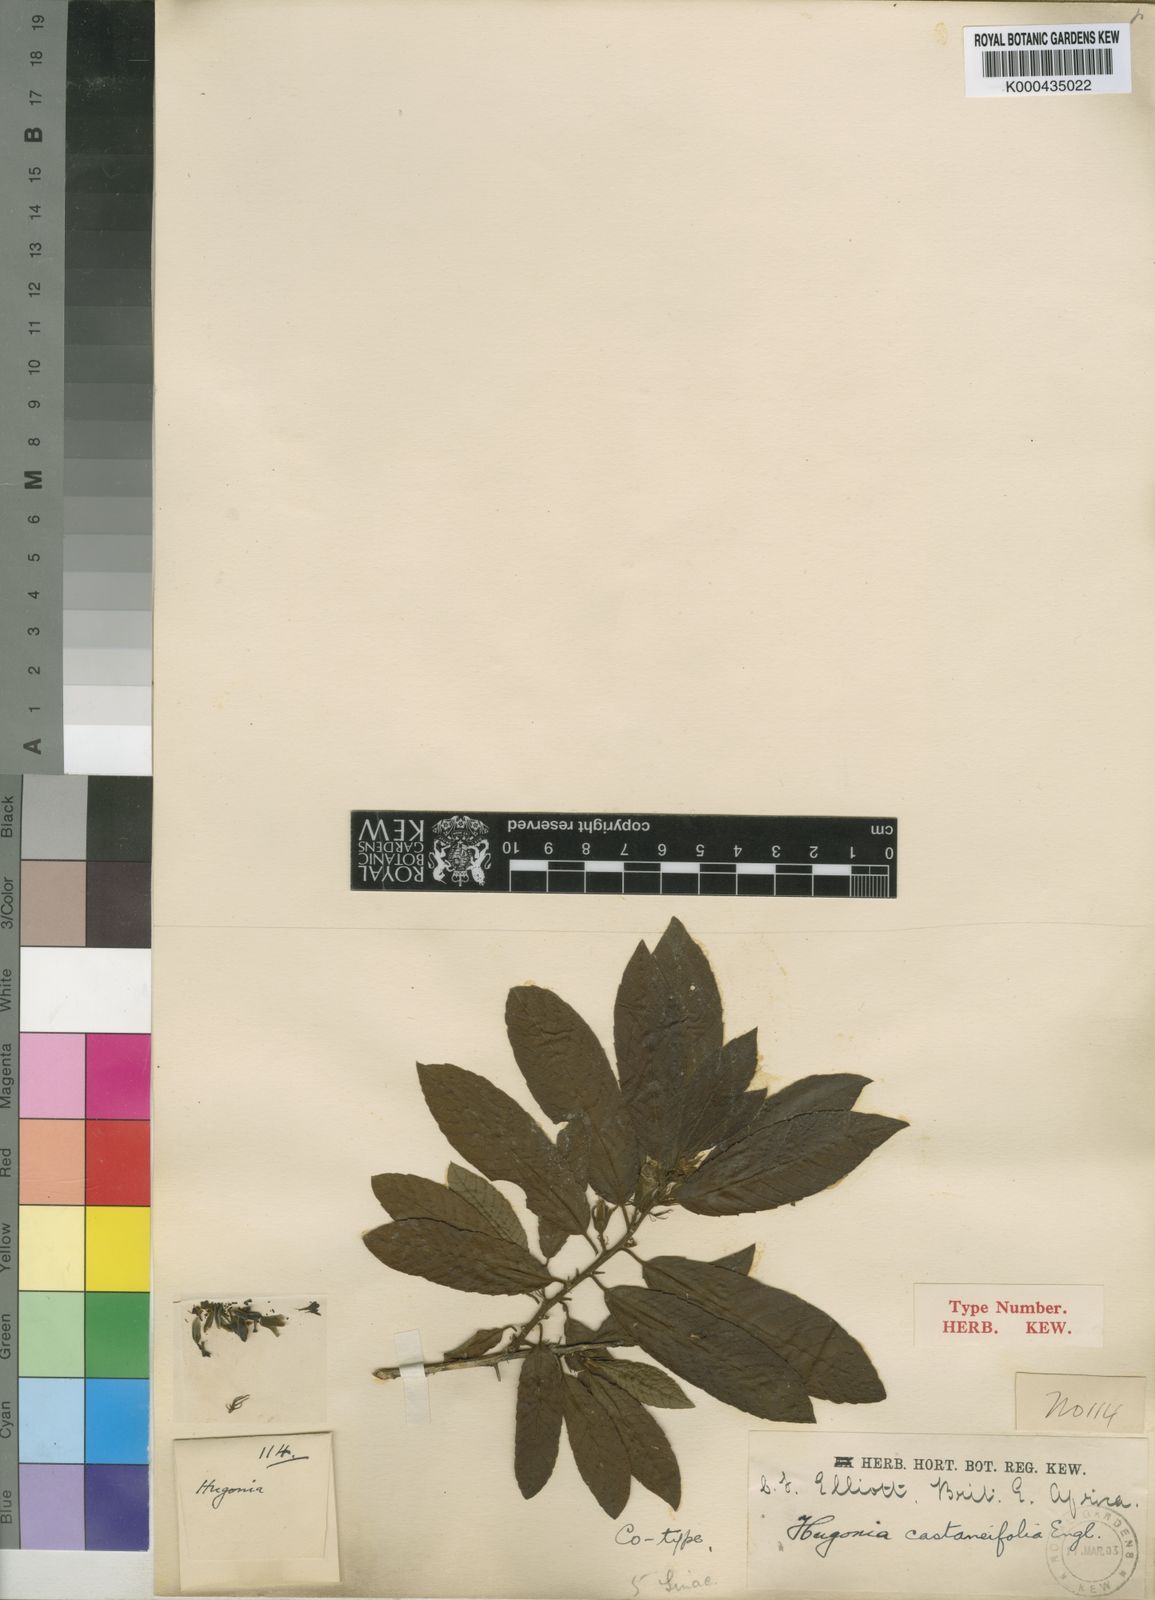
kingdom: Plantae
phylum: Tracheophyta
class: Magnoliopsida
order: Malpighiales
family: Linaceae
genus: Hugonia
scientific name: Hugonia castaneifolia
